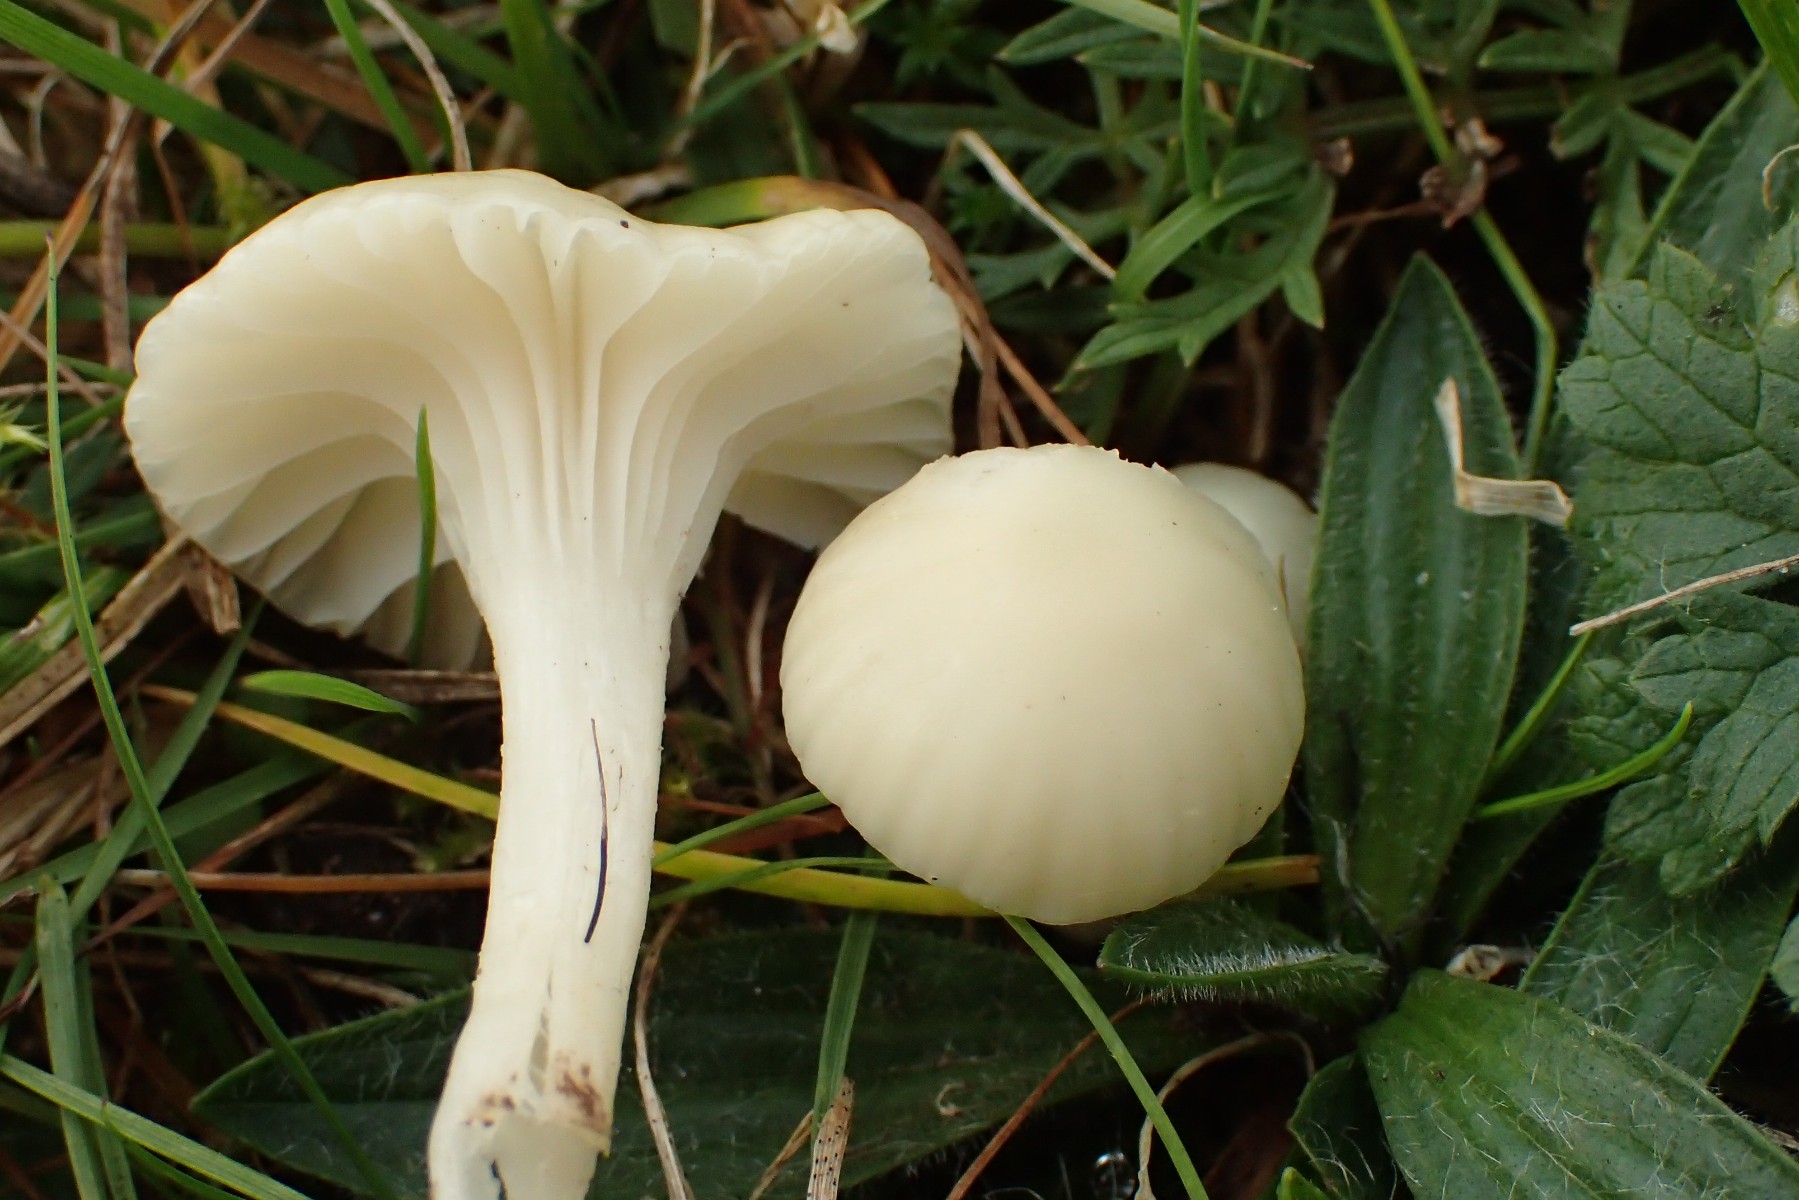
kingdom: Fungi
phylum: Basidiomycota
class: Agaricomycetes
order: Agaricales
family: Hygrophoraceae
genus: Cuphophyllus
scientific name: Cuphophyllus russocoriaceus
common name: ruslæder-vokshat
